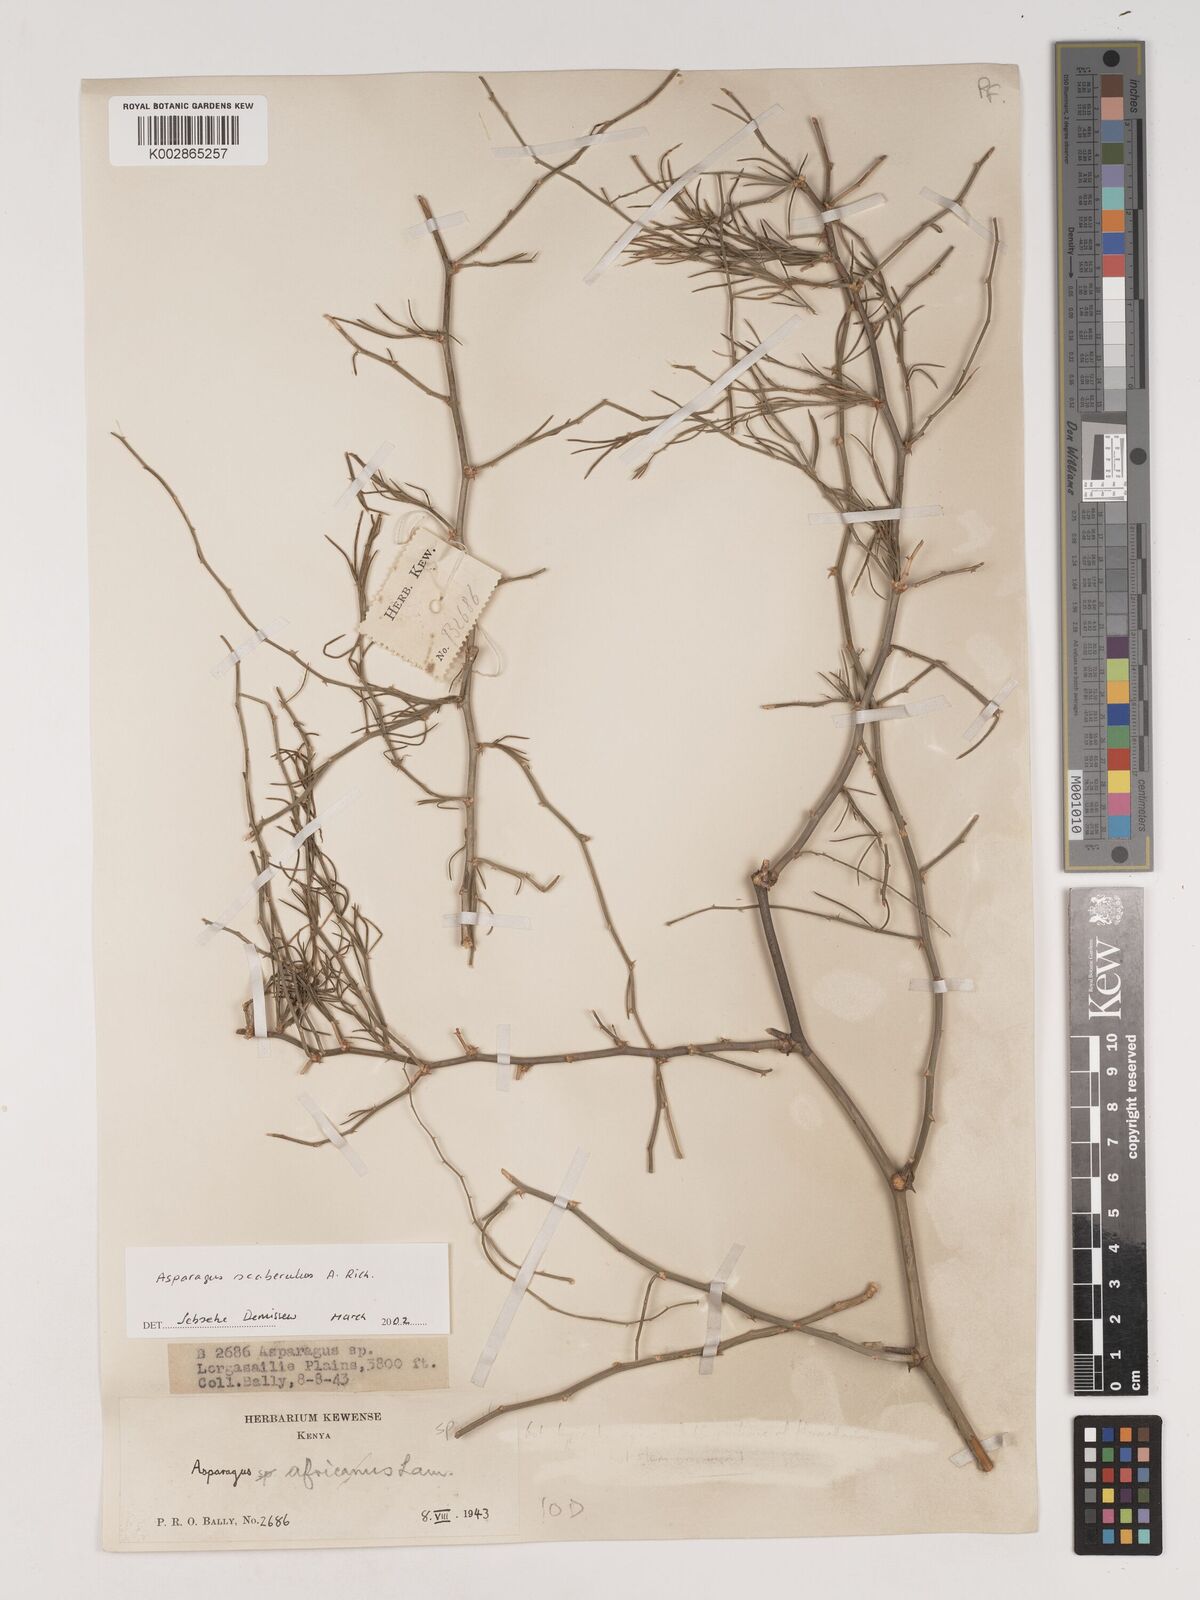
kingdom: Plantae
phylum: Tracheophyta
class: Liliopsida
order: Asparagales
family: Asparagaceae
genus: Asparagus
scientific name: Asparagus scaberulus
